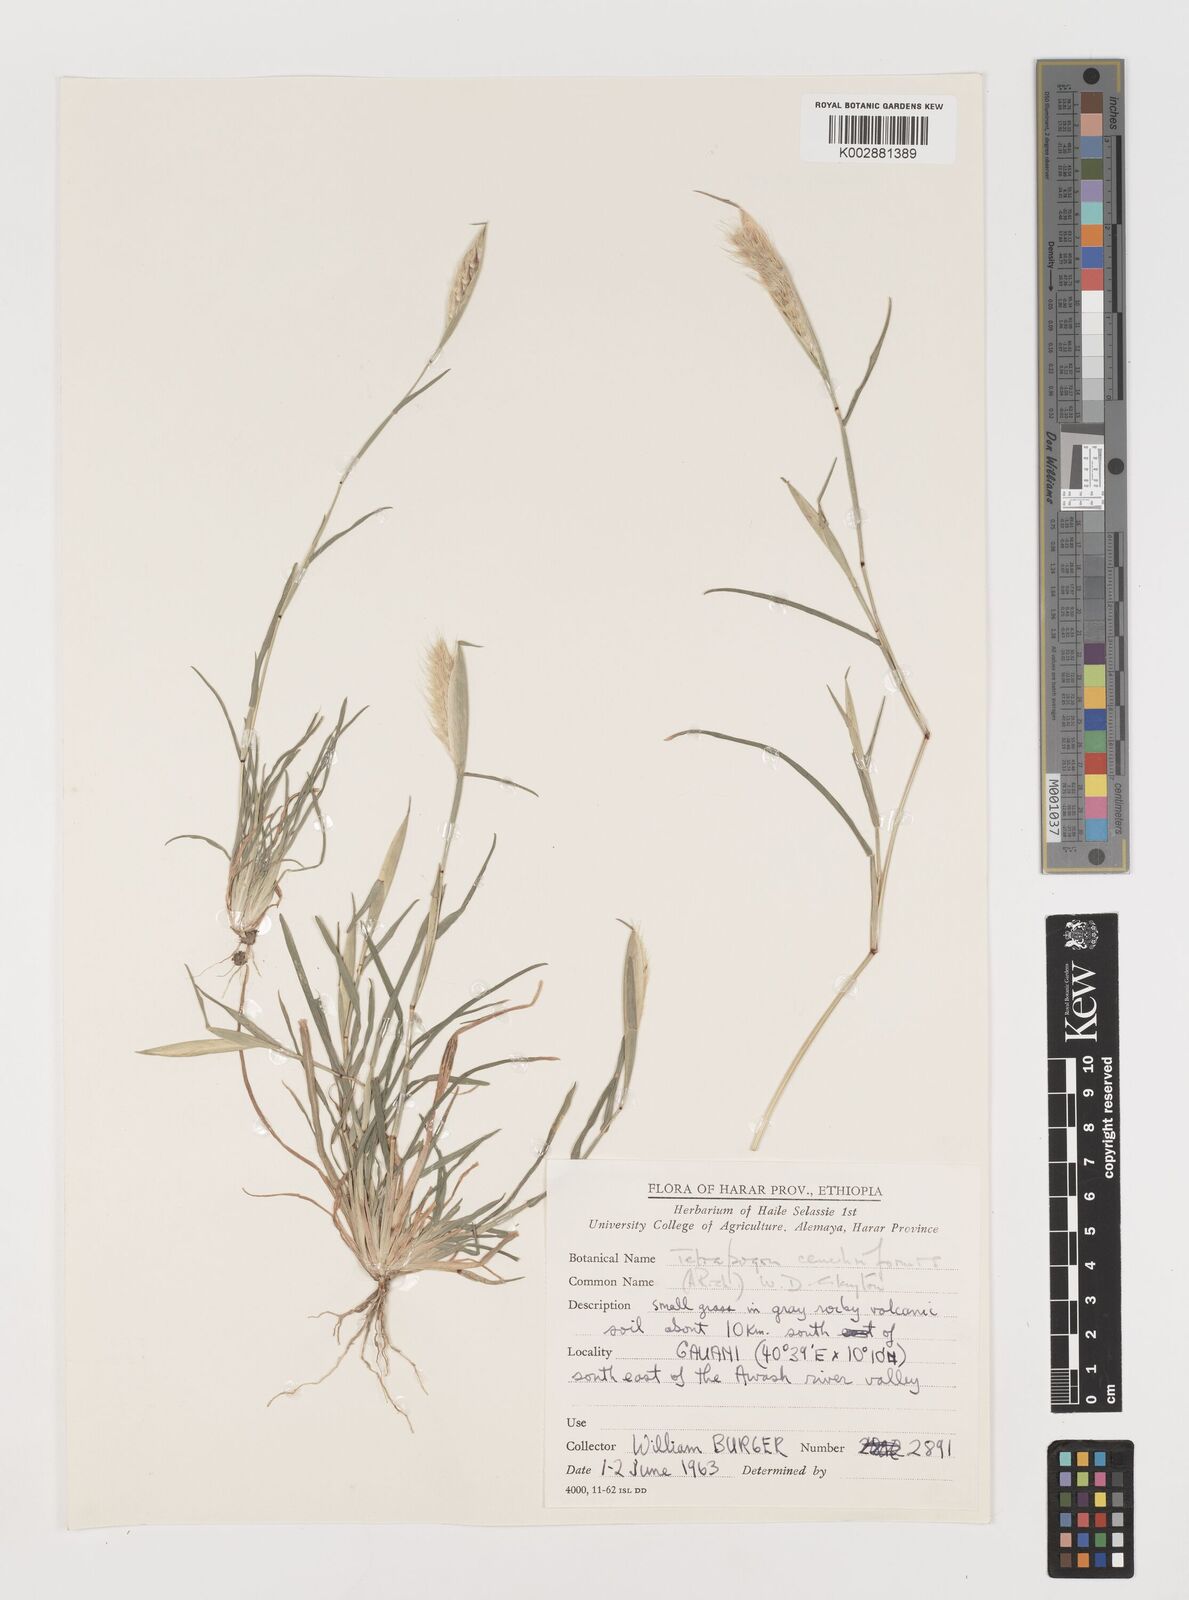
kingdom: Plantae
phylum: Tracheophyta
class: Liliopsida
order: Poales
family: Poaceae
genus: Tetrapogon
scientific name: Tetrapogon cenchriformis
